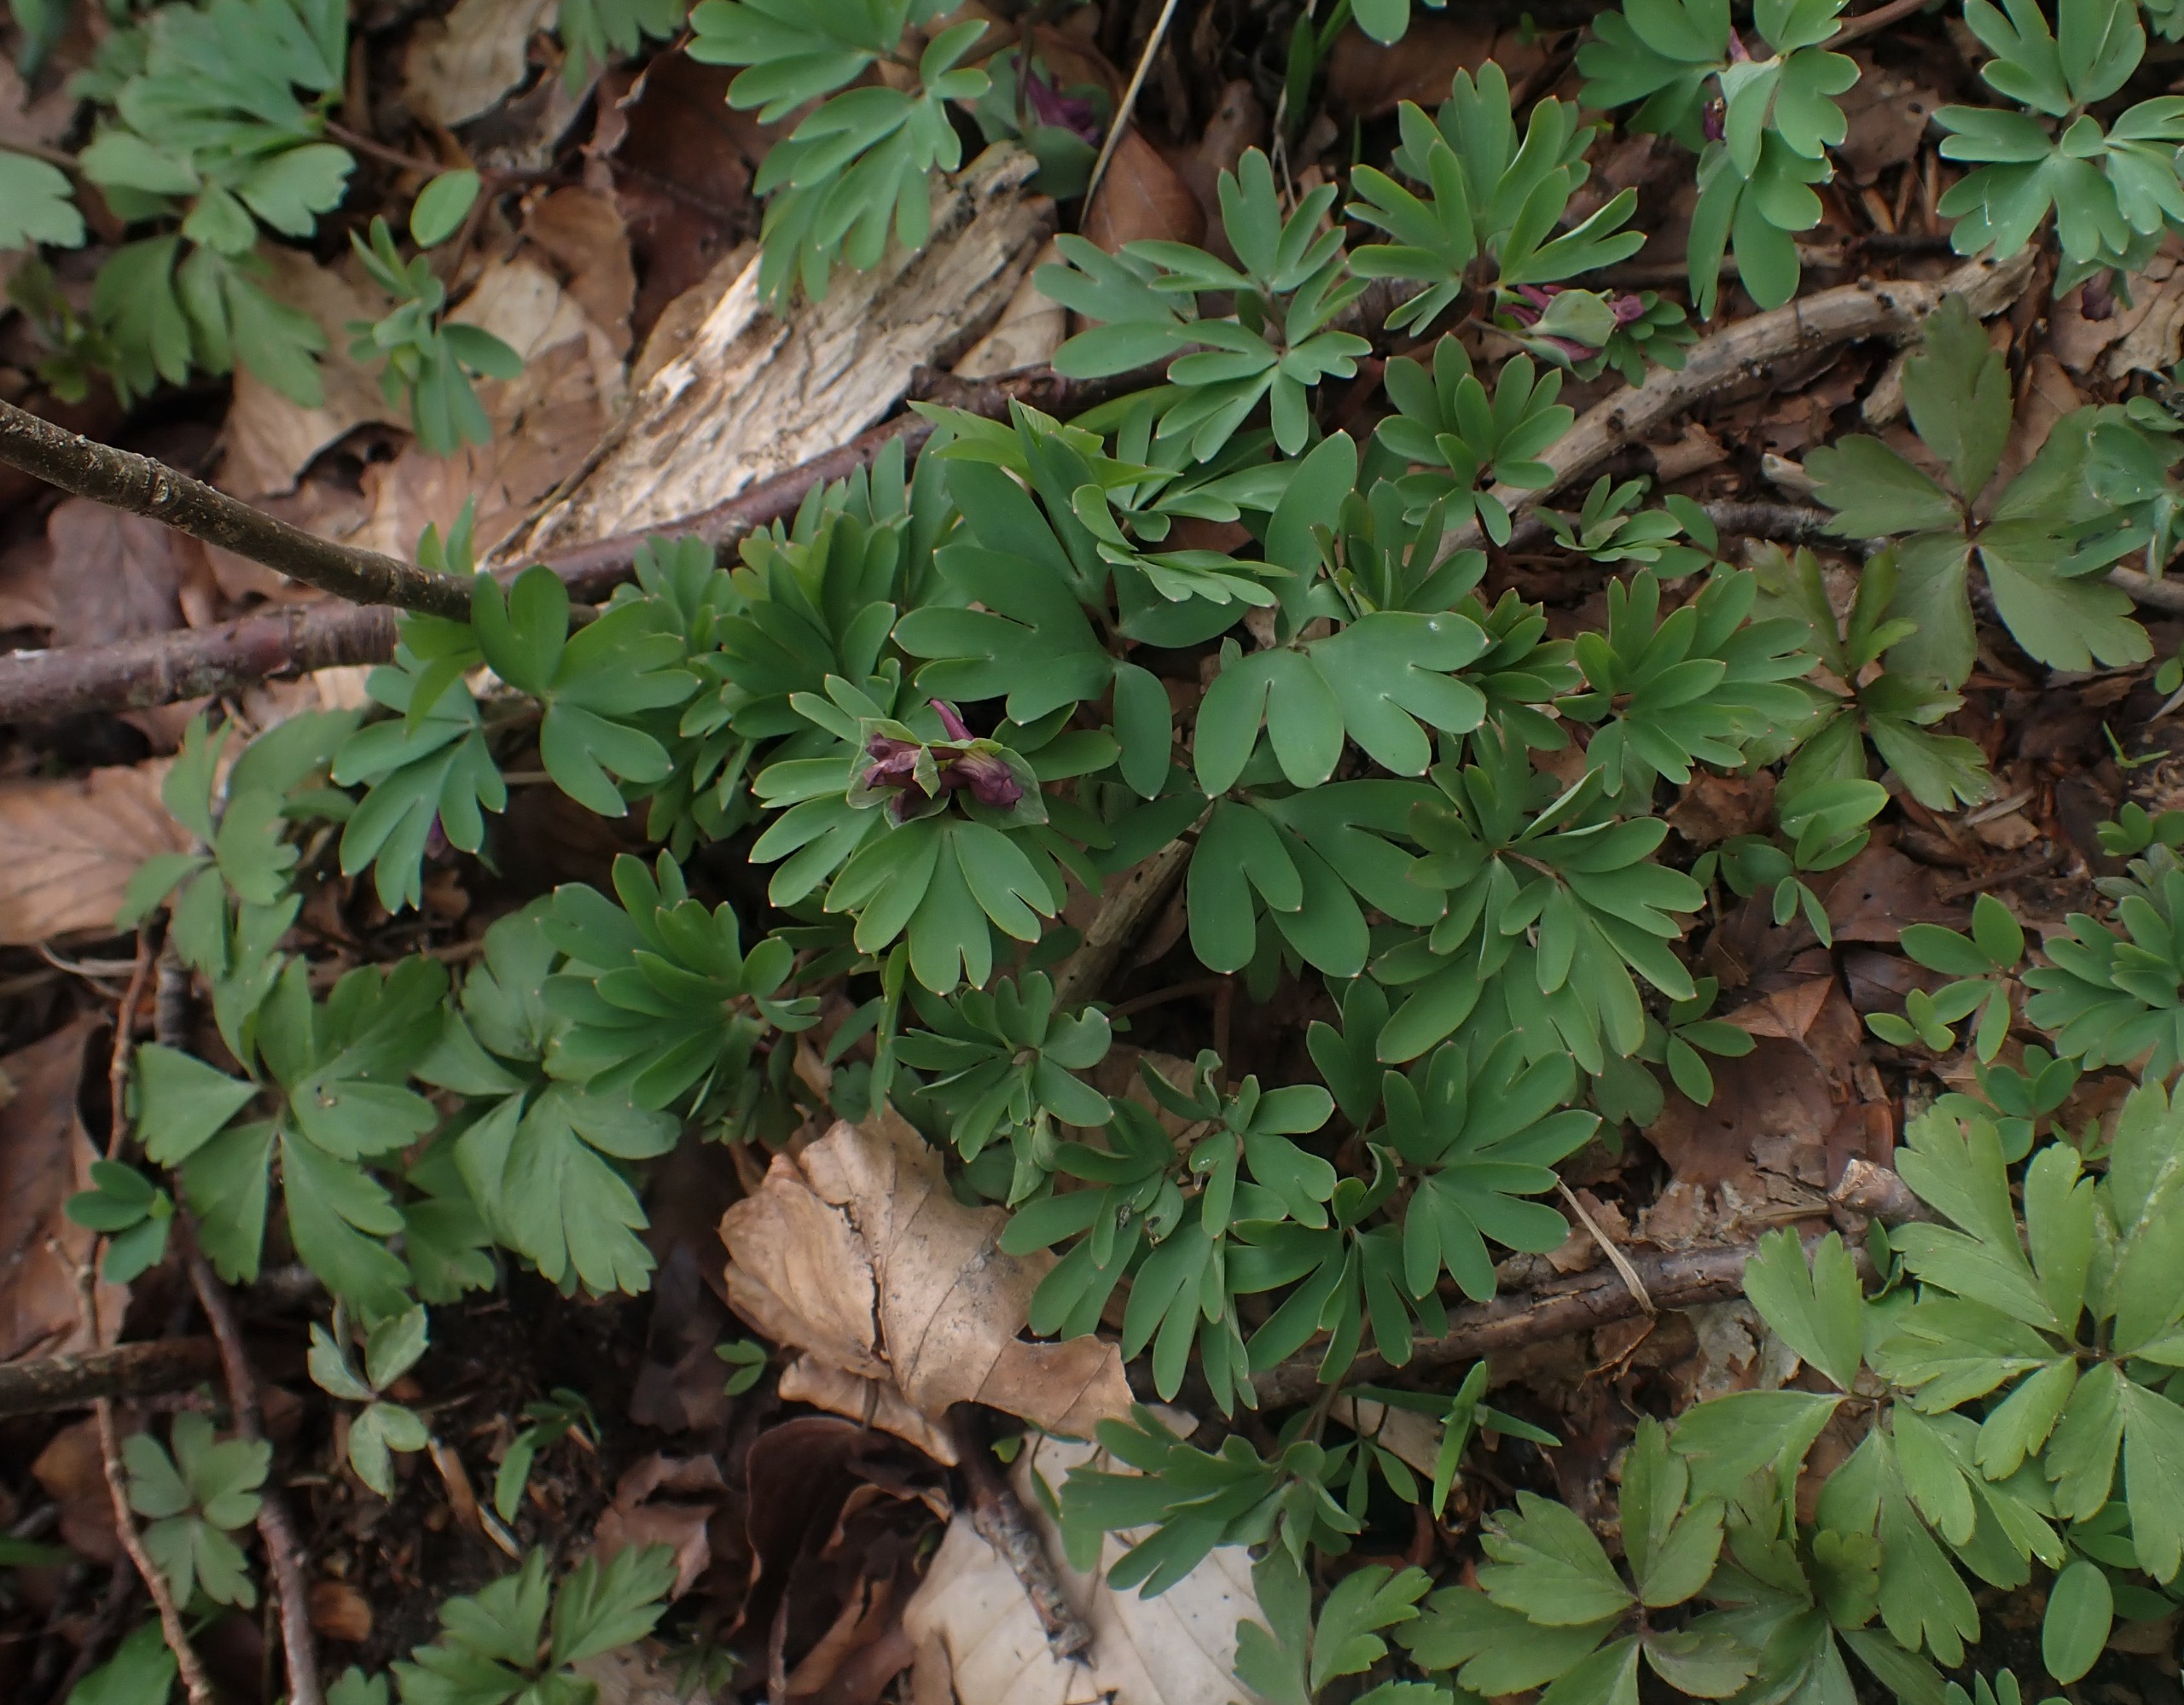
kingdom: Plantae
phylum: Tracheophyta
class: Magnoliopsida
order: Ranunculales
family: Papaveraceae
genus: Corydalis
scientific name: Corydalis intermedia
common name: Liden lærkespore
